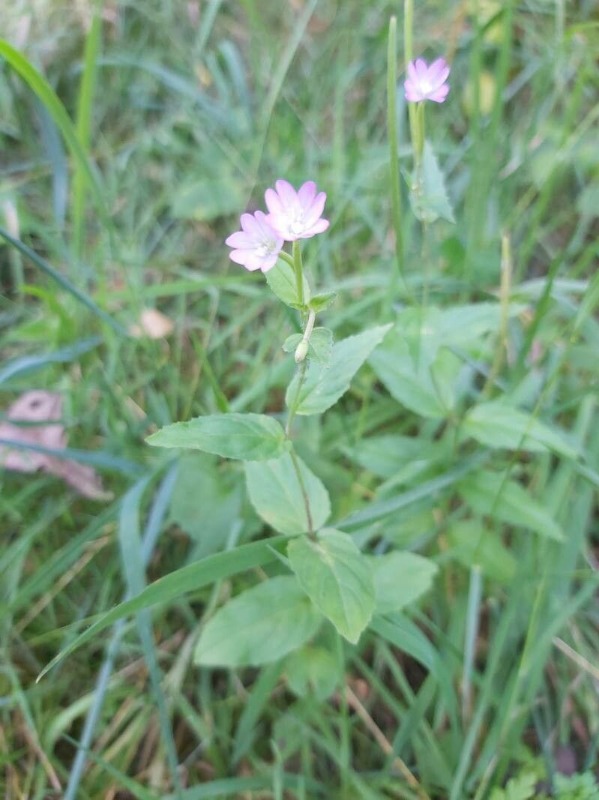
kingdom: Plantae
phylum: Tracheophyta
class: Magnoliopsida
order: Myrtales
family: Onagraceae
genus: Epilobium
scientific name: Epilobium montanum
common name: Glat dueurt
